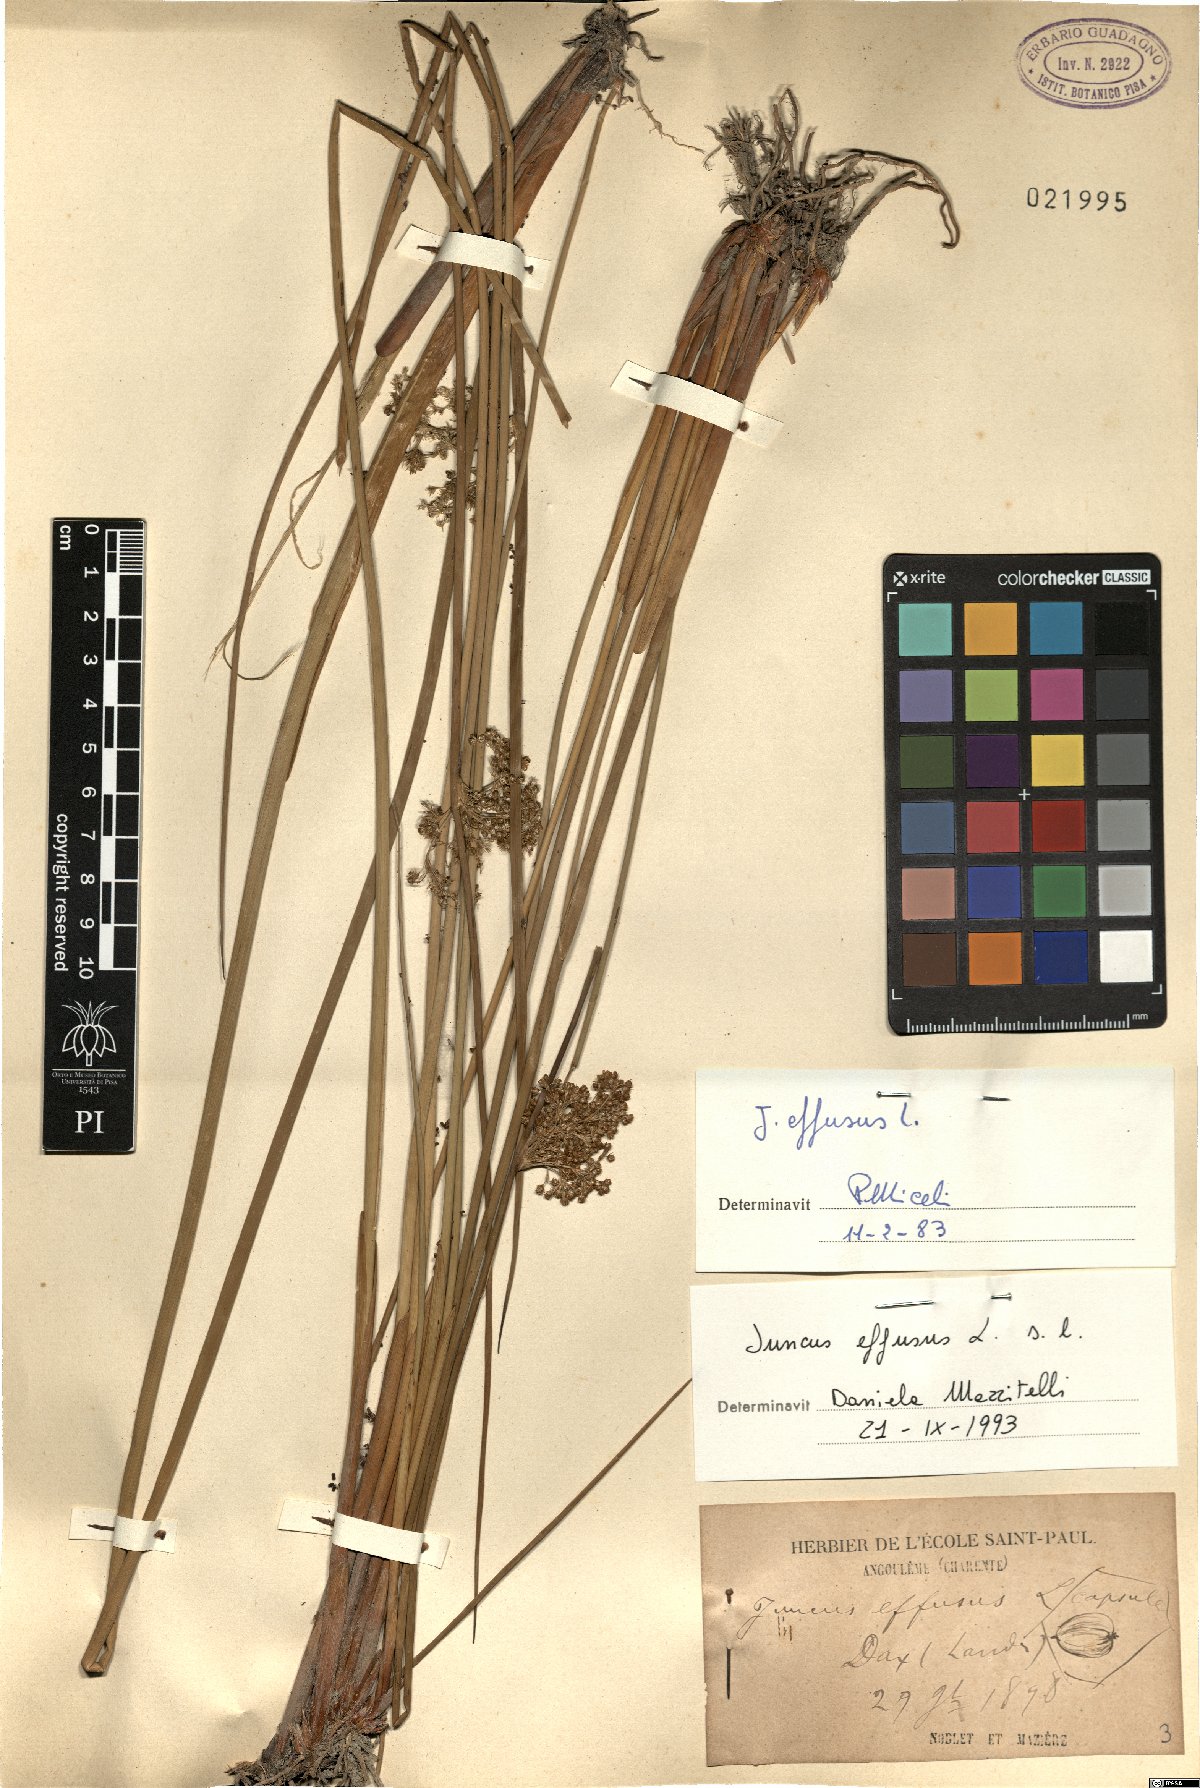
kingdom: Plantae
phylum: Tracheophyta
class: Liliopsida
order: Poales
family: Juncaceae
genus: Juncus
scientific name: Juncus effusus
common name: Soft rush
